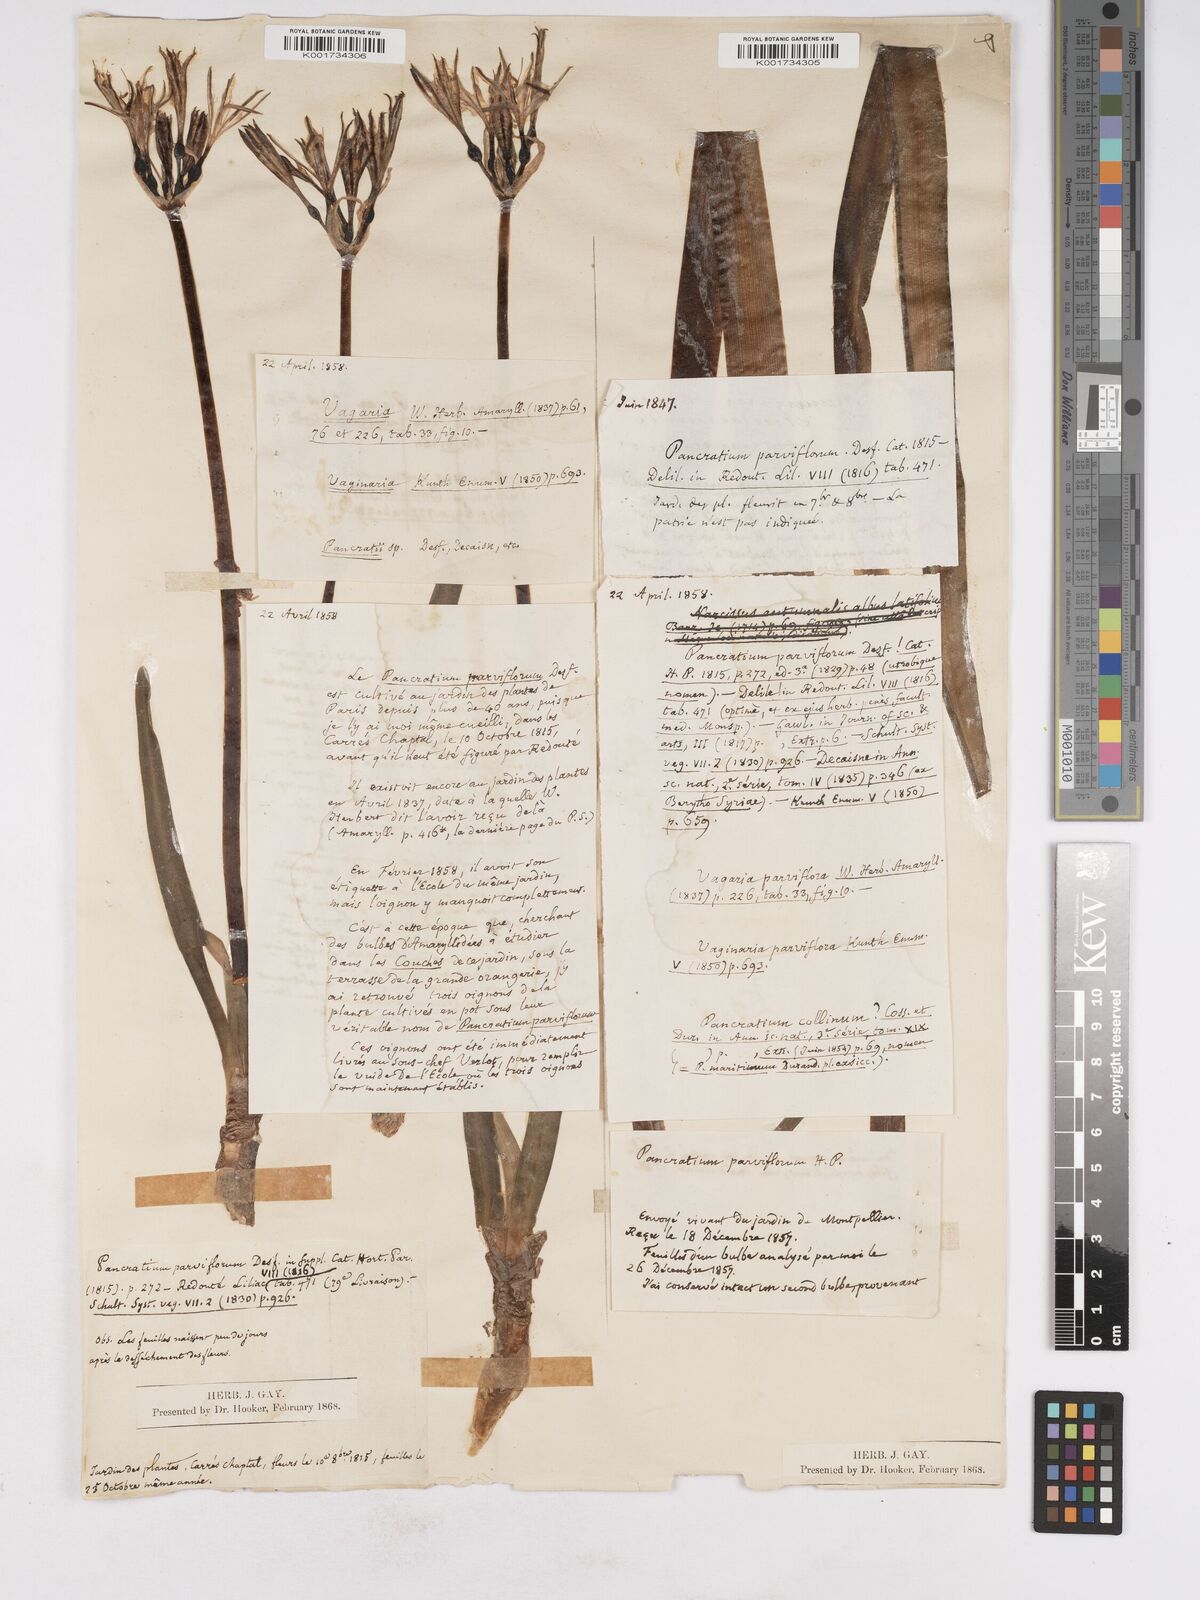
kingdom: Plantae
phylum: Tracheophyta
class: Liliopsida
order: Asparagales
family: Amaryllidaceae
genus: Vagaria
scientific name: Vagaria parviflora
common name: Small-flowered pancratium
